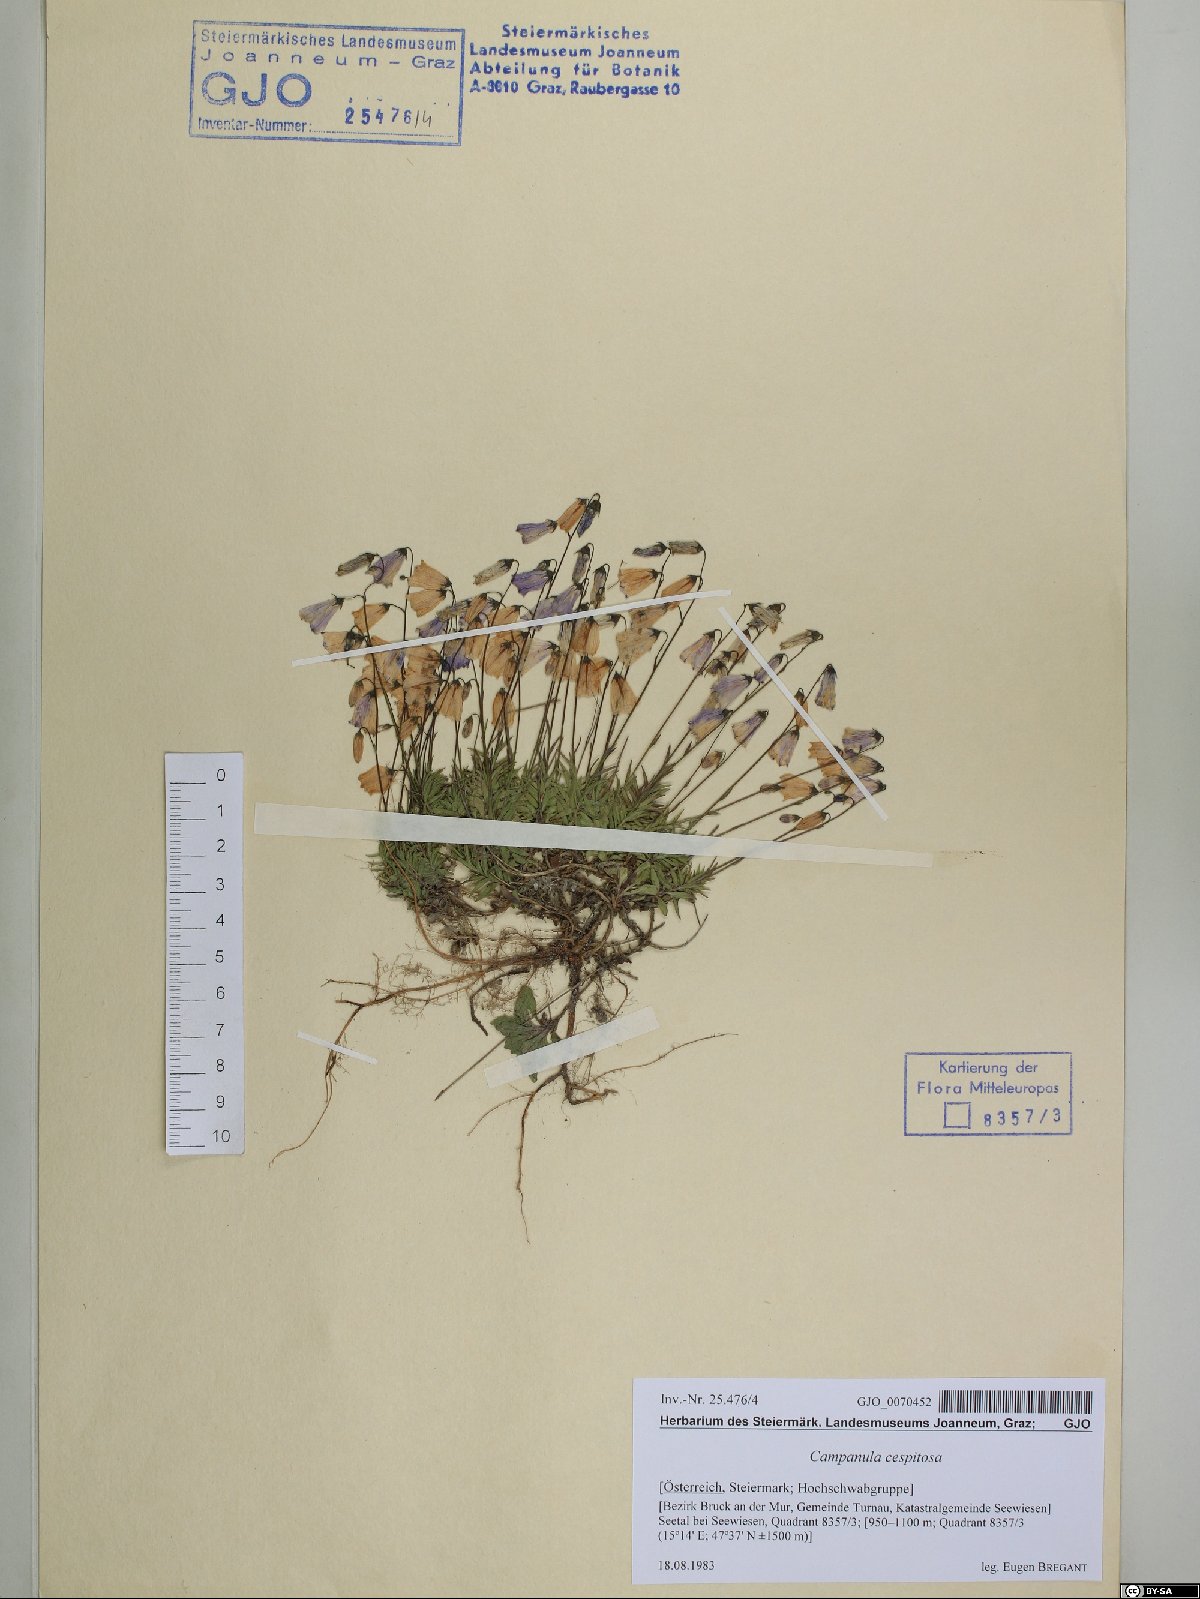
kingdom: Plantae
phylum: Tracheophyta
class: Magnoliopsida
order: Asterales
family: Campanulaceae
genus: Campanula
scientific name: Campanula cespitosa
